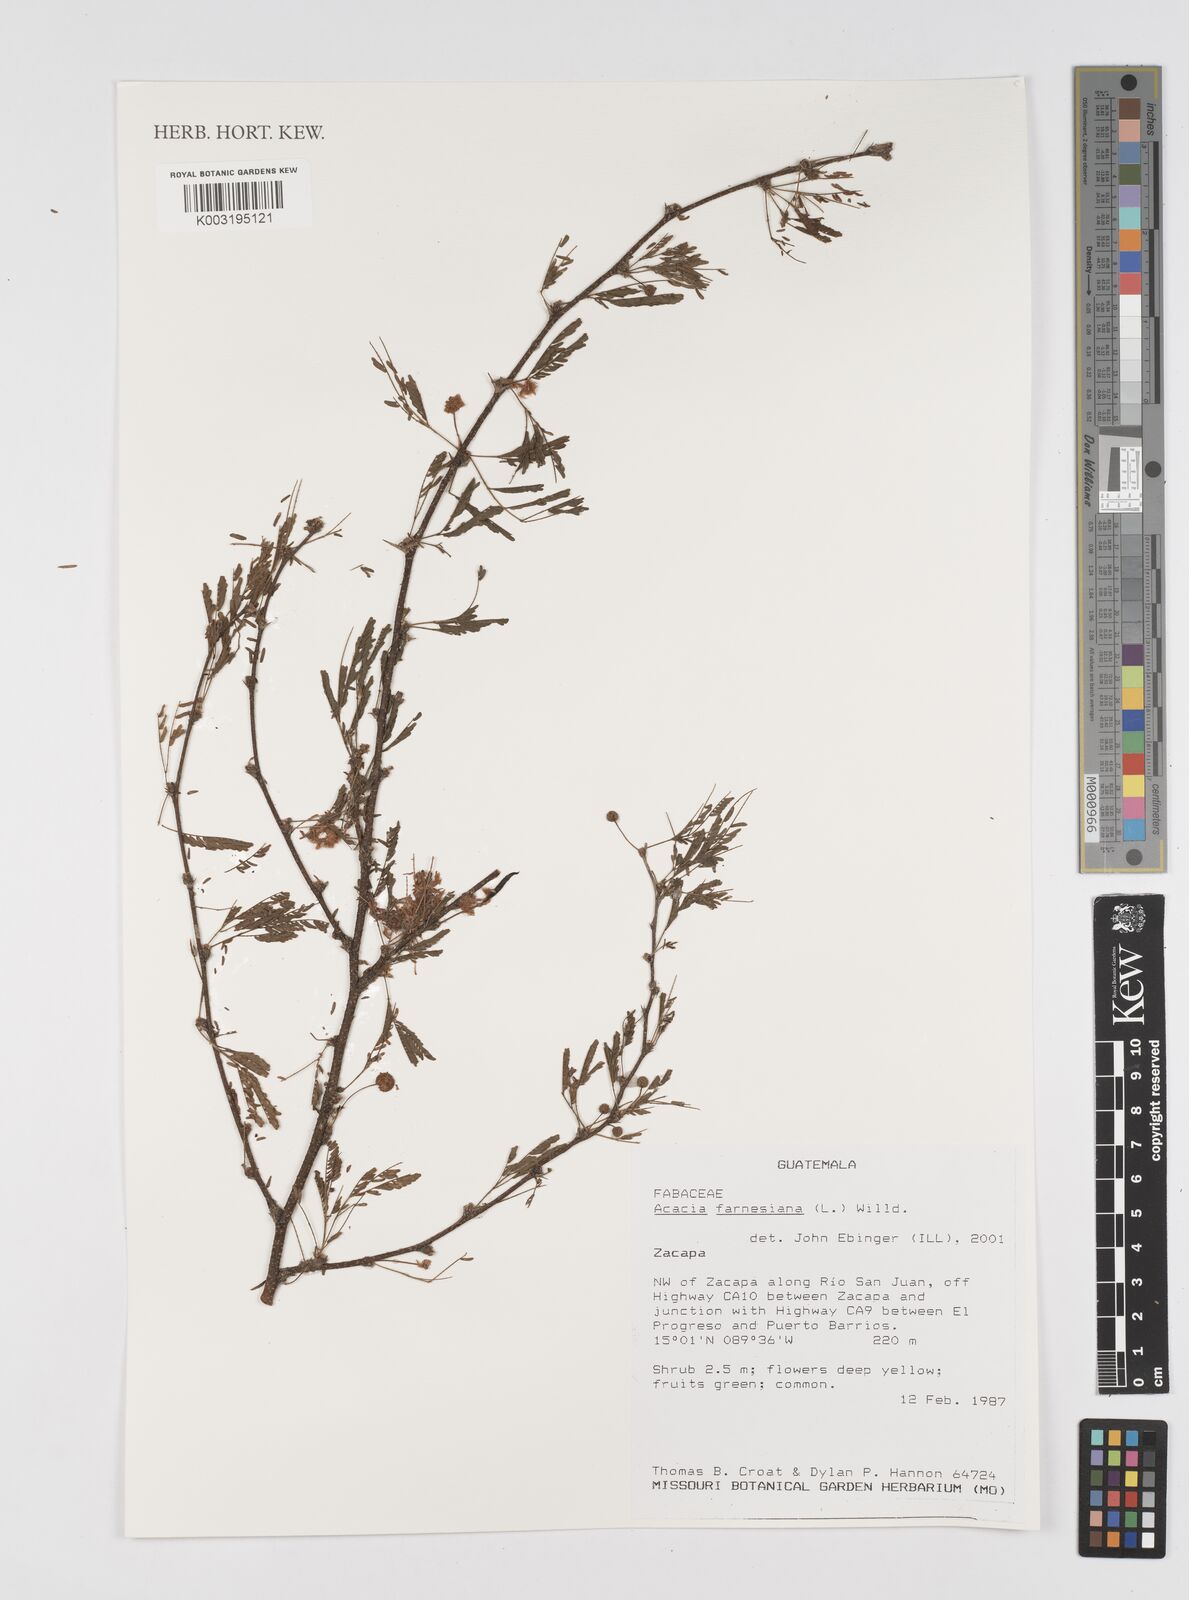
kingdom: Plantae
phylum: Tracheophyta
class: Magnoliopsida
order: Fabales
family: Fabaceae
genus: Vachellia
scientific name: Vachellia farnesiana
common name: Sweet acacia
